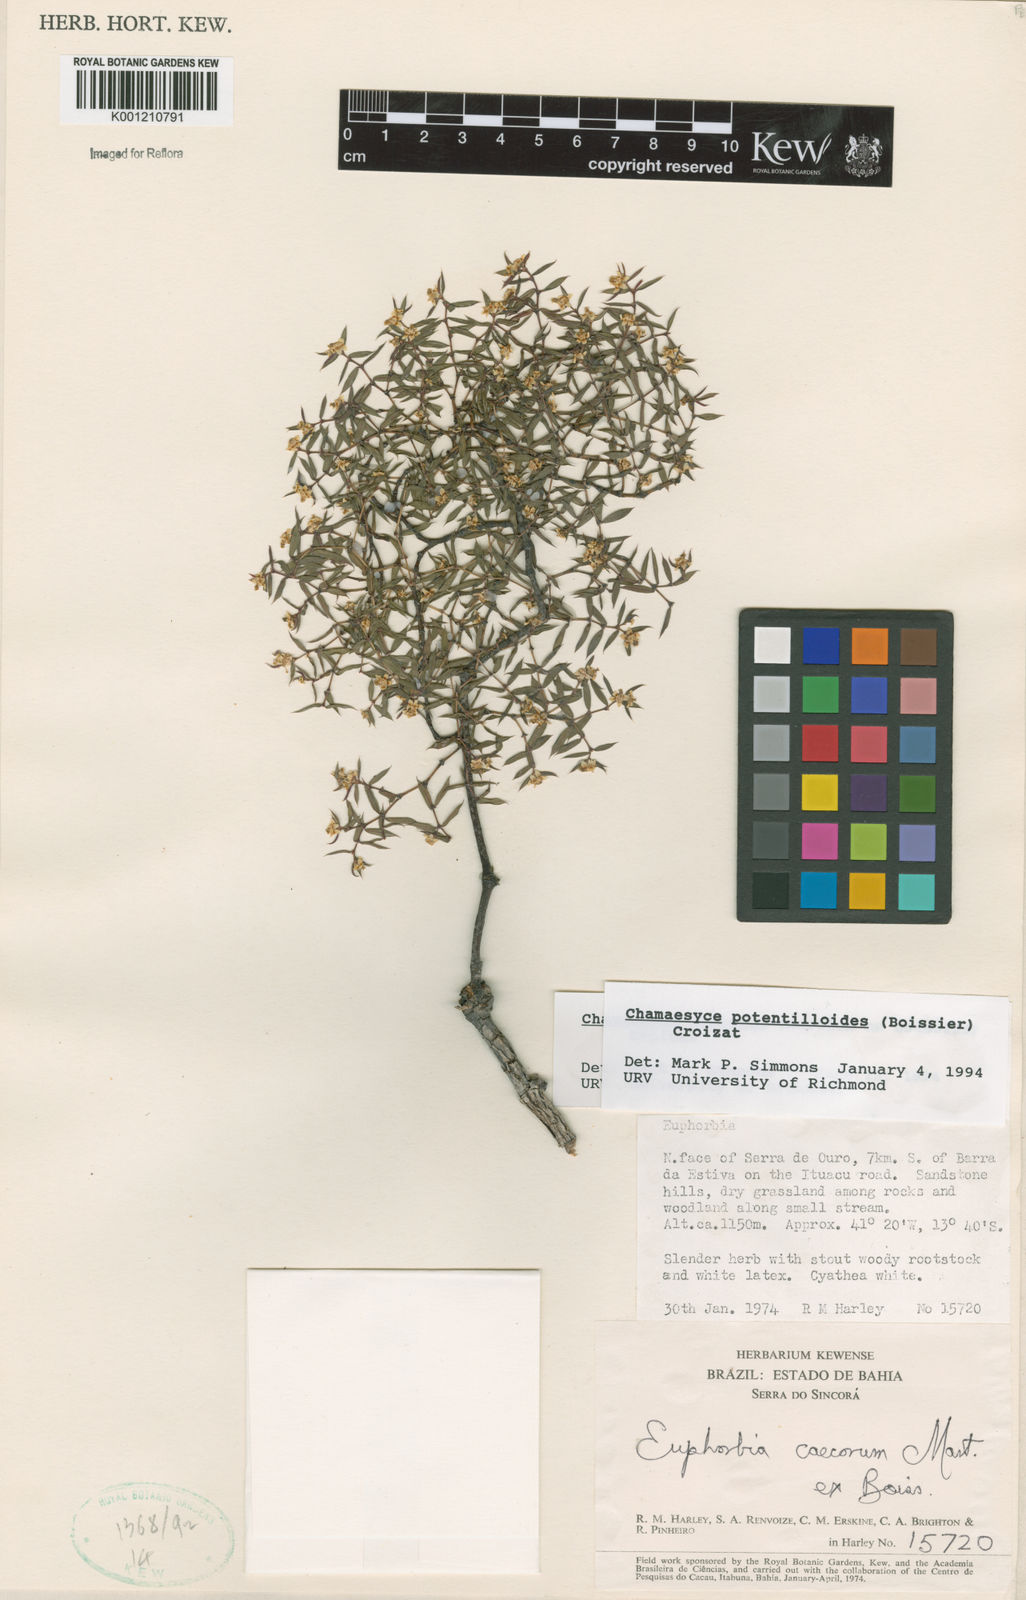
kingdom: Plantae
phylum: Tracheophyta
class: Magnoliopsida
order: Malpighiales
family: Euphorbiaceae
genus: Euphorbia
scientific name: Euphorbia potentilloides
